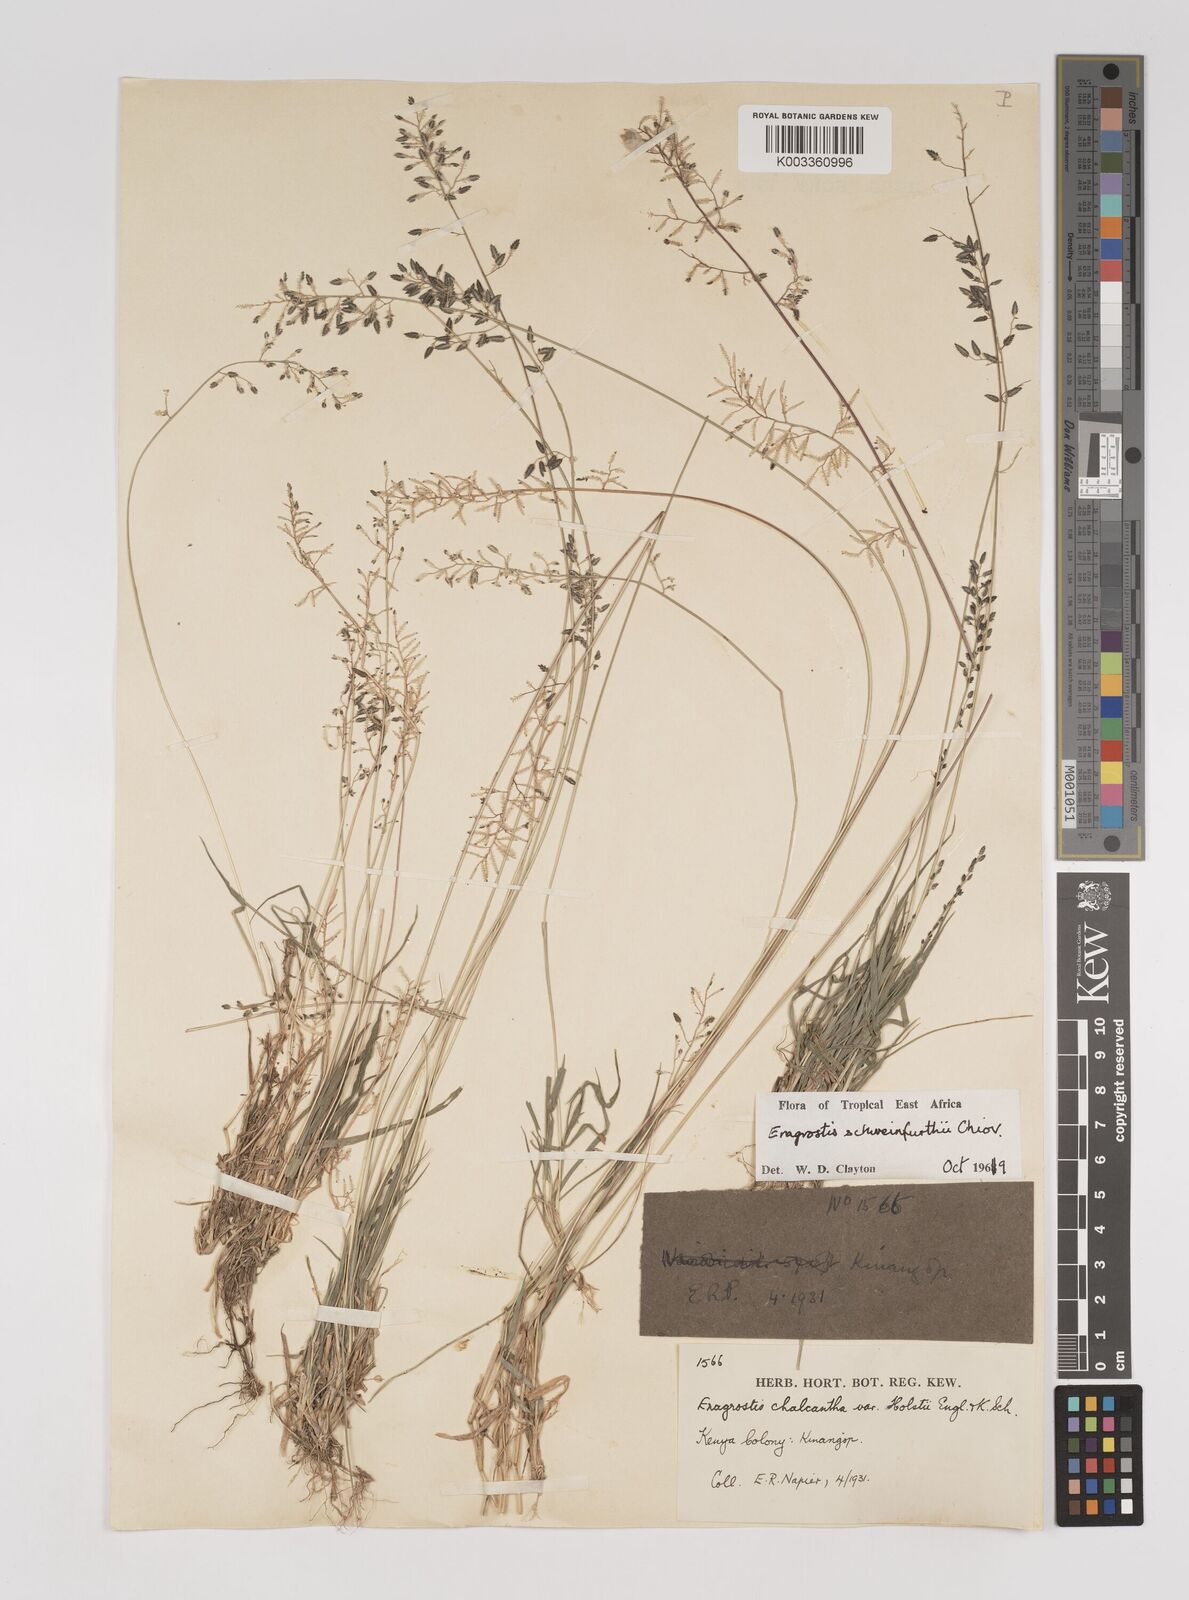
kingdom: Plantae
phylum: Tracheophyta
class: Liliopsida
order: Poales
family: Poaceae
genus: Eragrostis
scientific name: Eragrostis schweinfurthii
